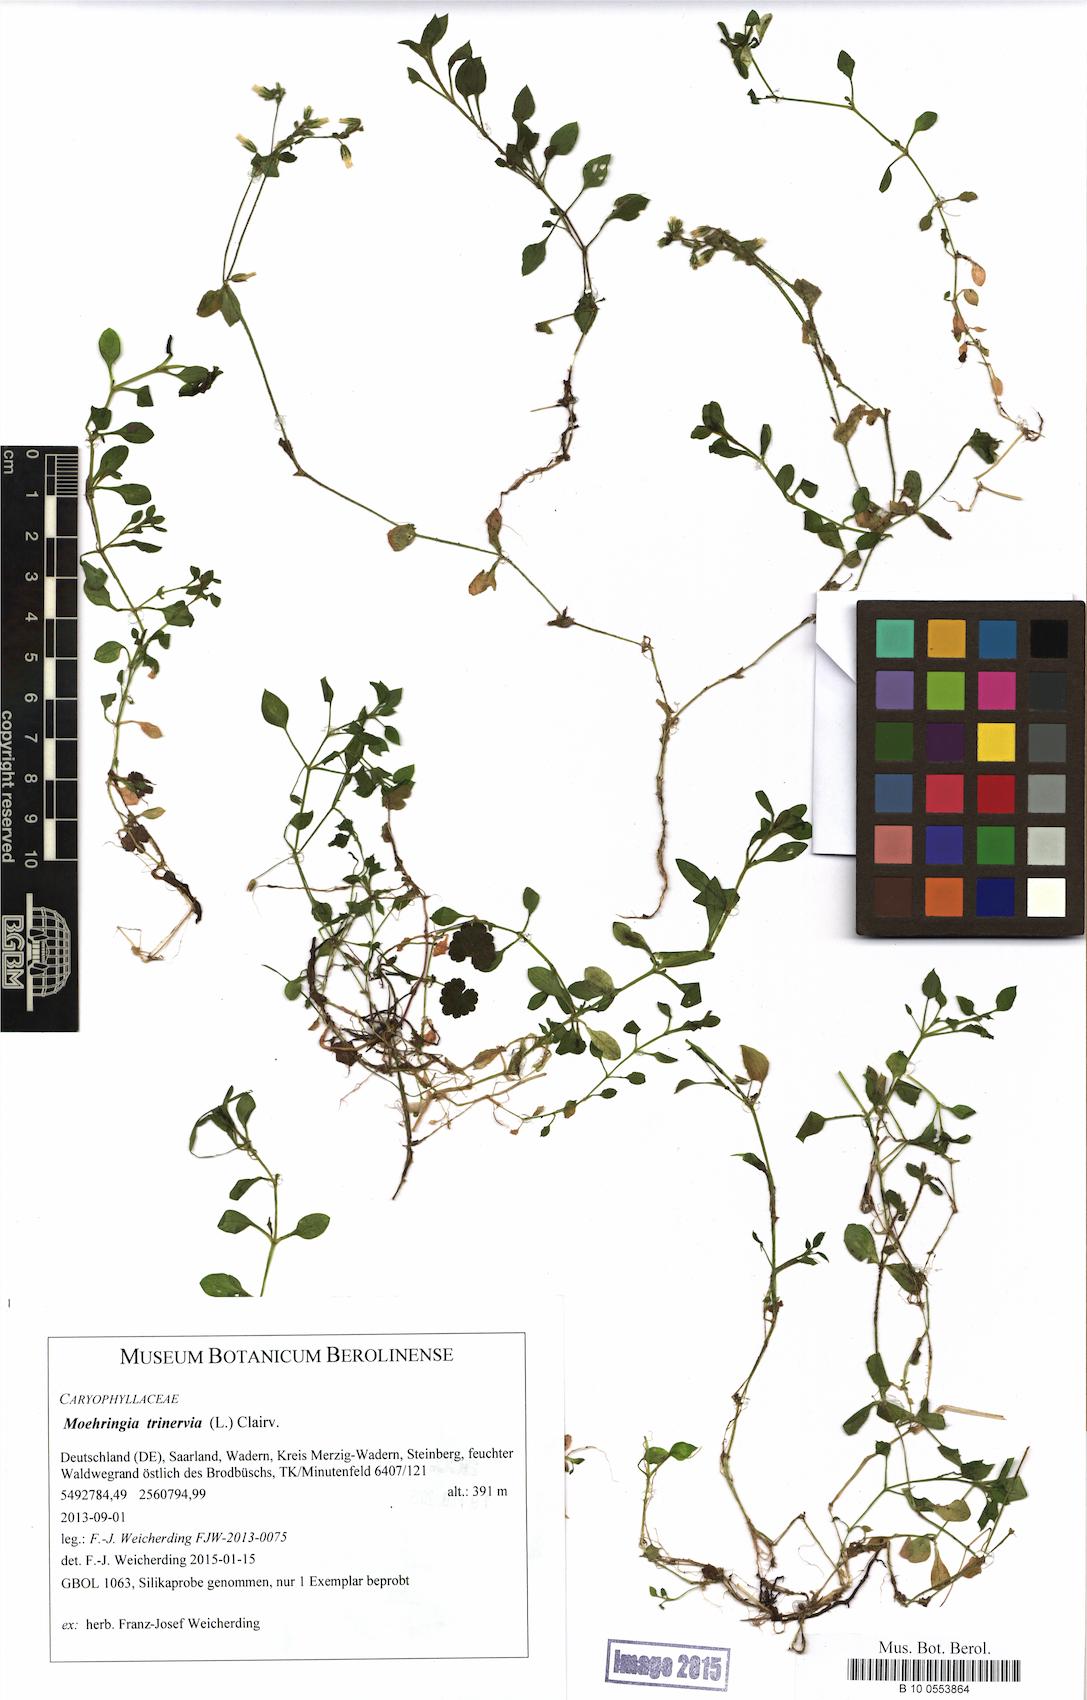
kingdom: Plantae
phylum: Tracheophyta
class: Magnoliopsida
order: Caryophyllales
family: Caryophyllaceae
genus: Moehringia
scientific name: Moehringia trinervia
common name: Three-nerved sandwort
